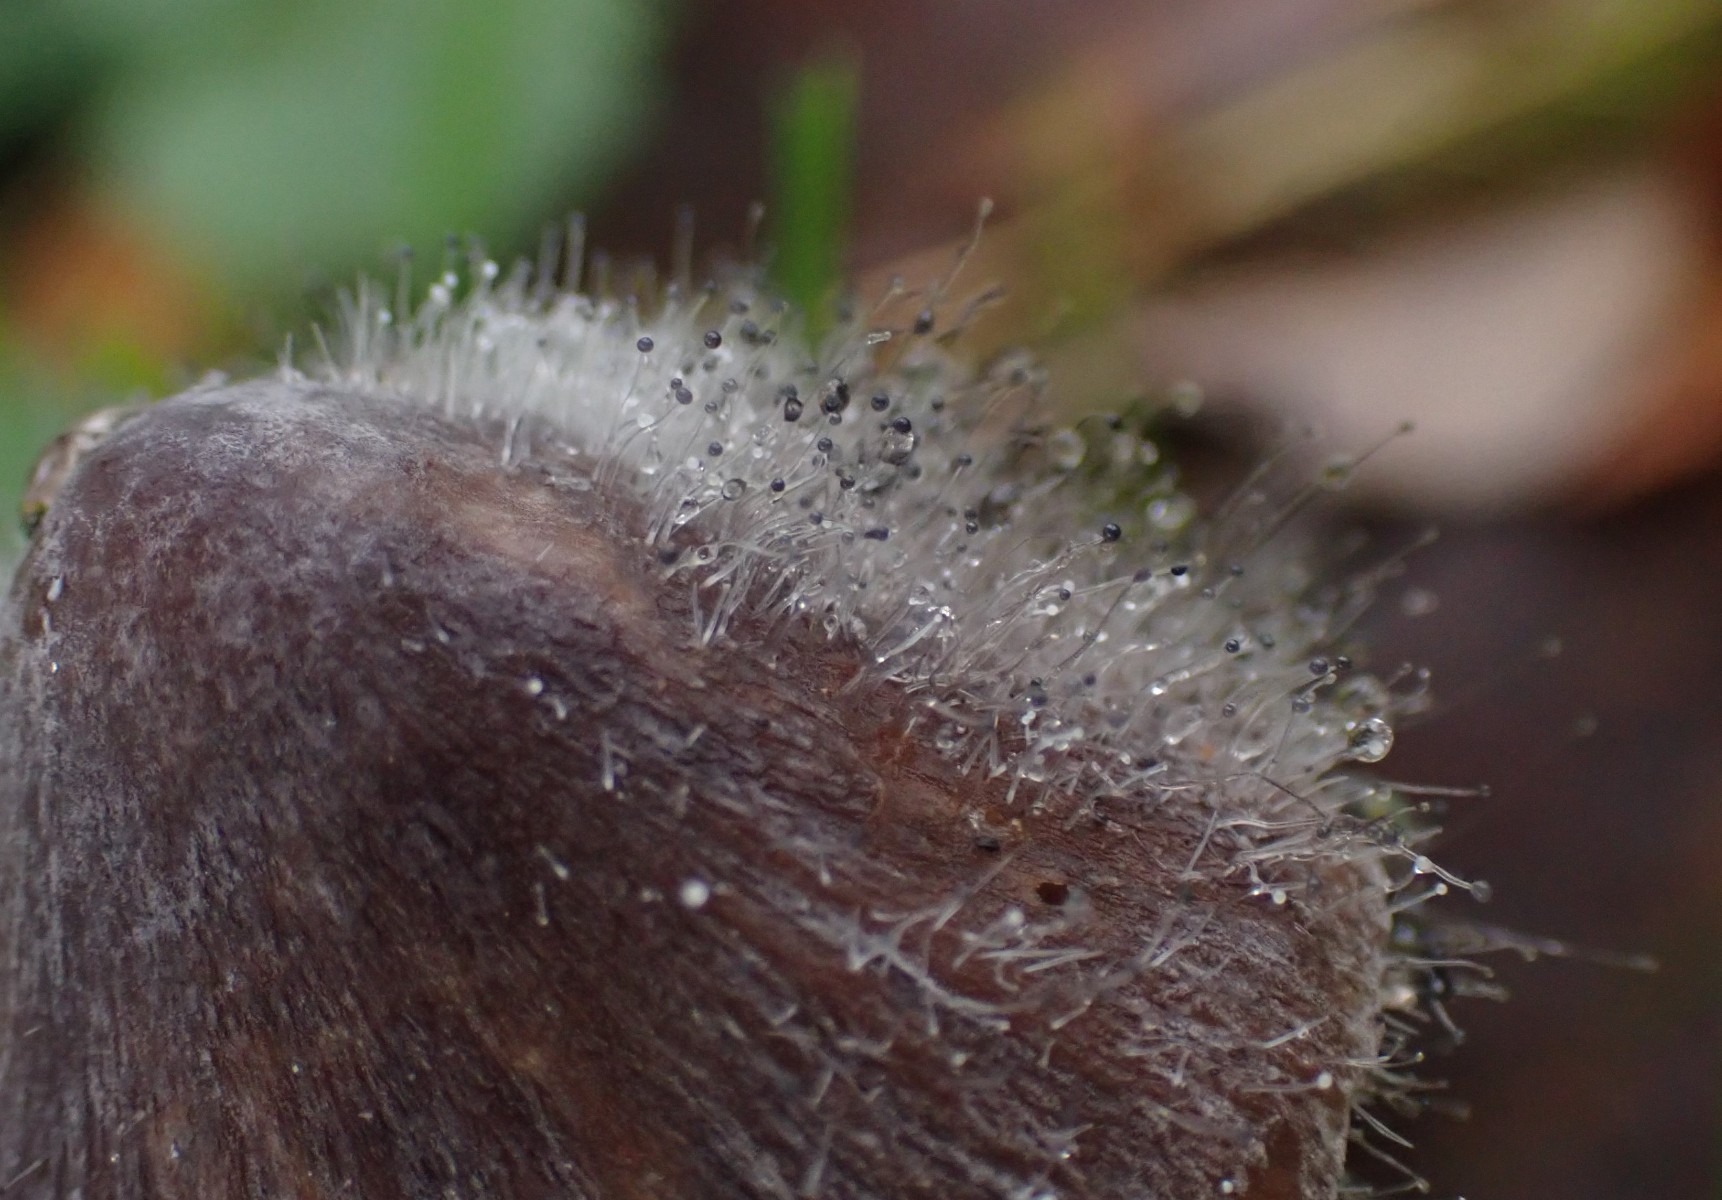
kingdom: Fungi
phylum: Mucoromycota
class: Mucoromycetes
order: Mucorales
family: Phycomycetaceae
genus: Spinellus
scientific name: Spinellus fusiger
